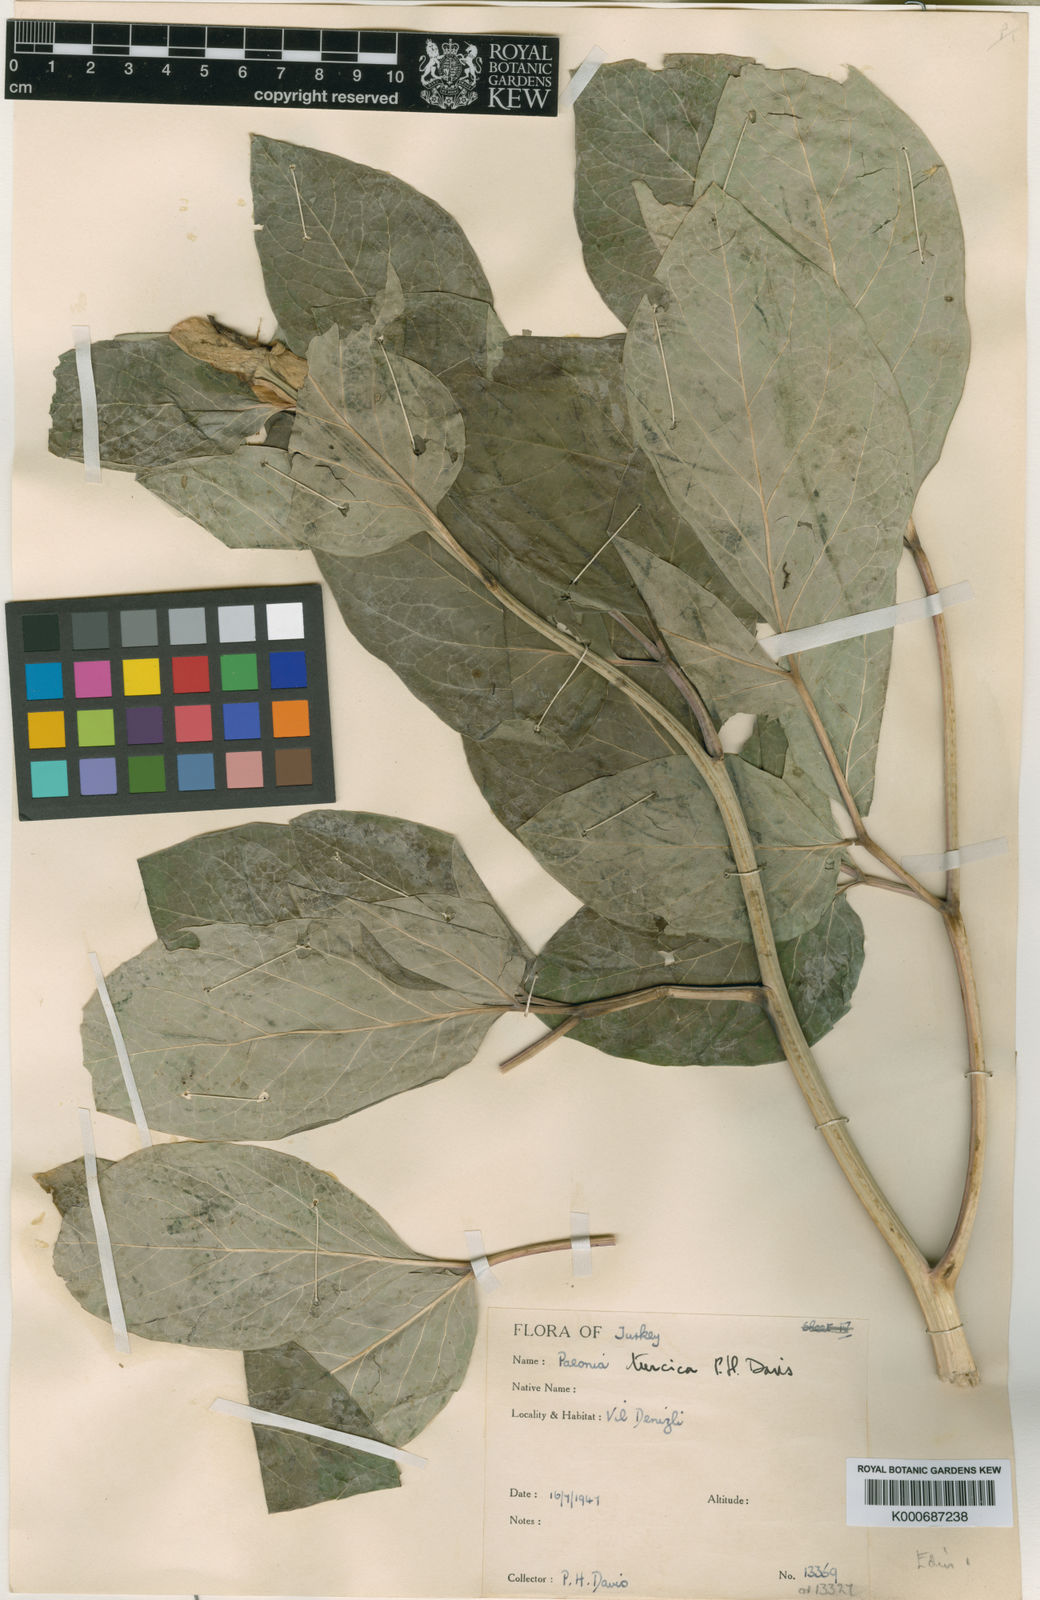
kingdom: Plantae
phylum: Tracheophyta
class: Magnoliopsida
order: Saxifragales
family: Paeoniaceae
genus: Paeonia
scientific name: Paeonia mascula
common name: Peony
